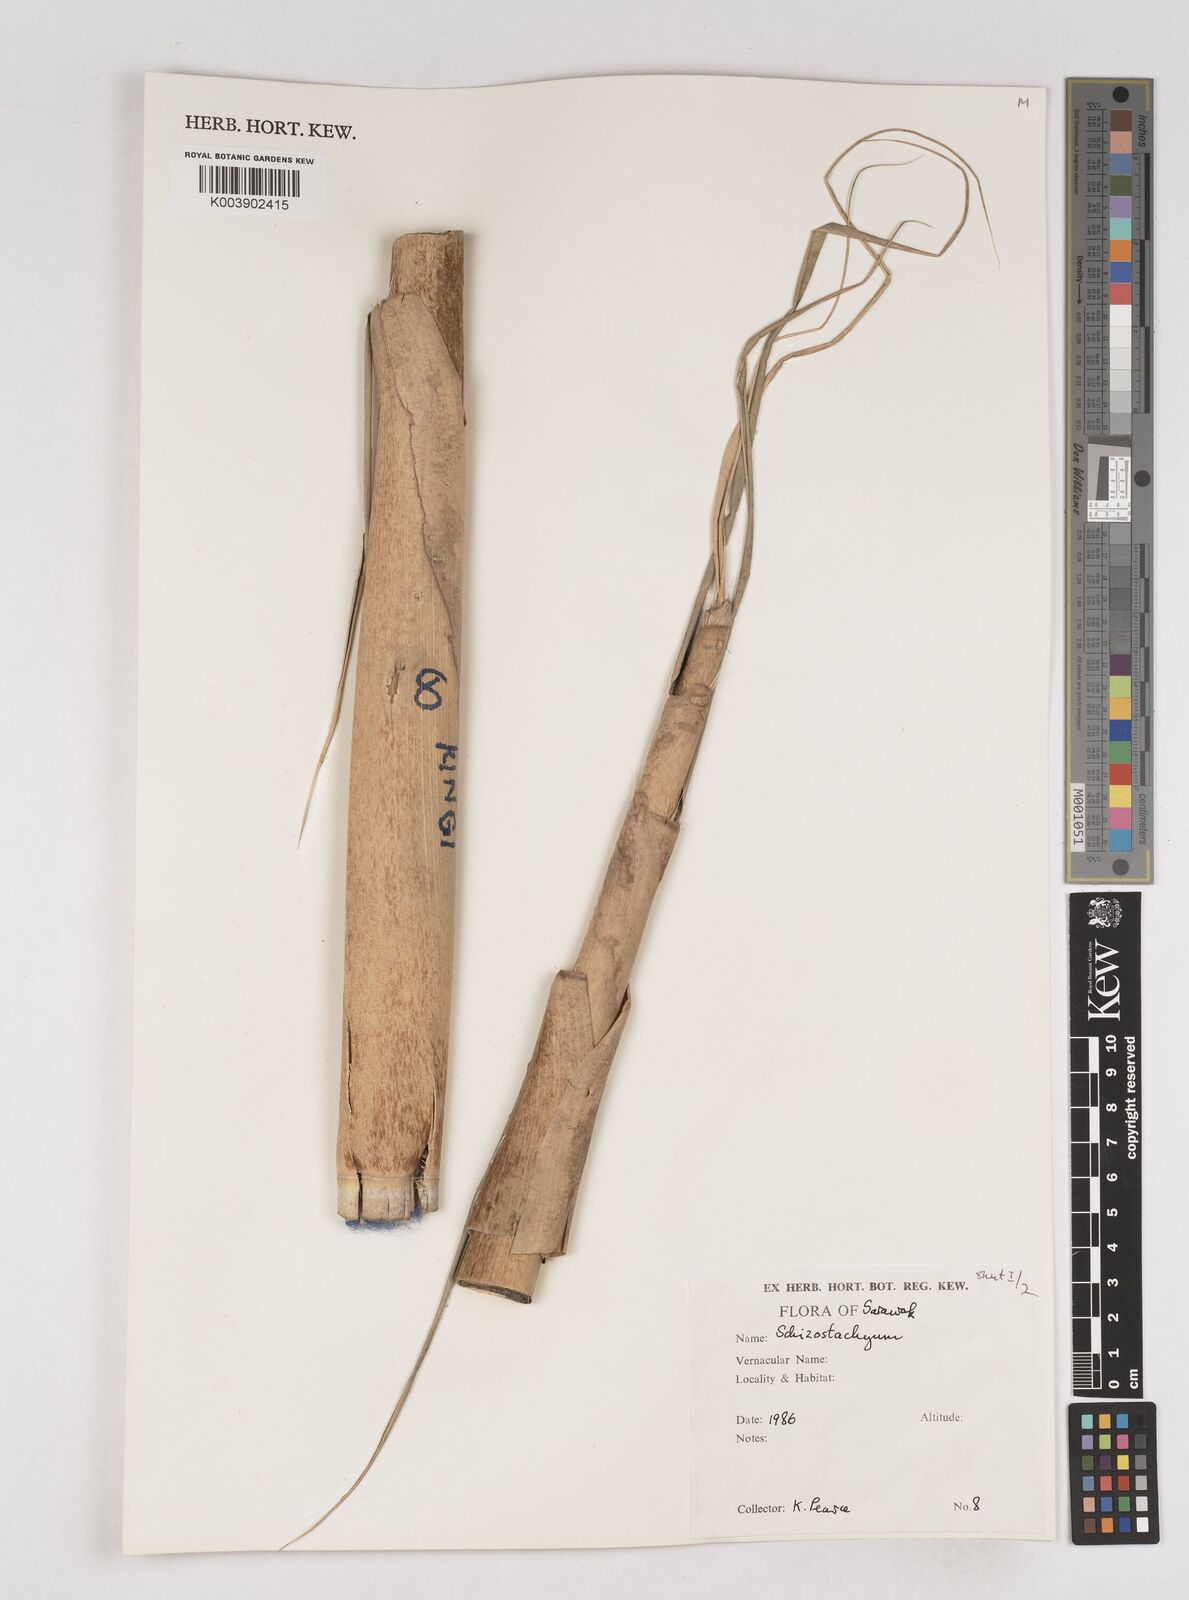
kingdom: Plantae
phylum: Tracheophyta
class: Liliopsida
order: Poales
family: Poaceae
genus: Schizostachyum
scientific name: Schizostachyum
